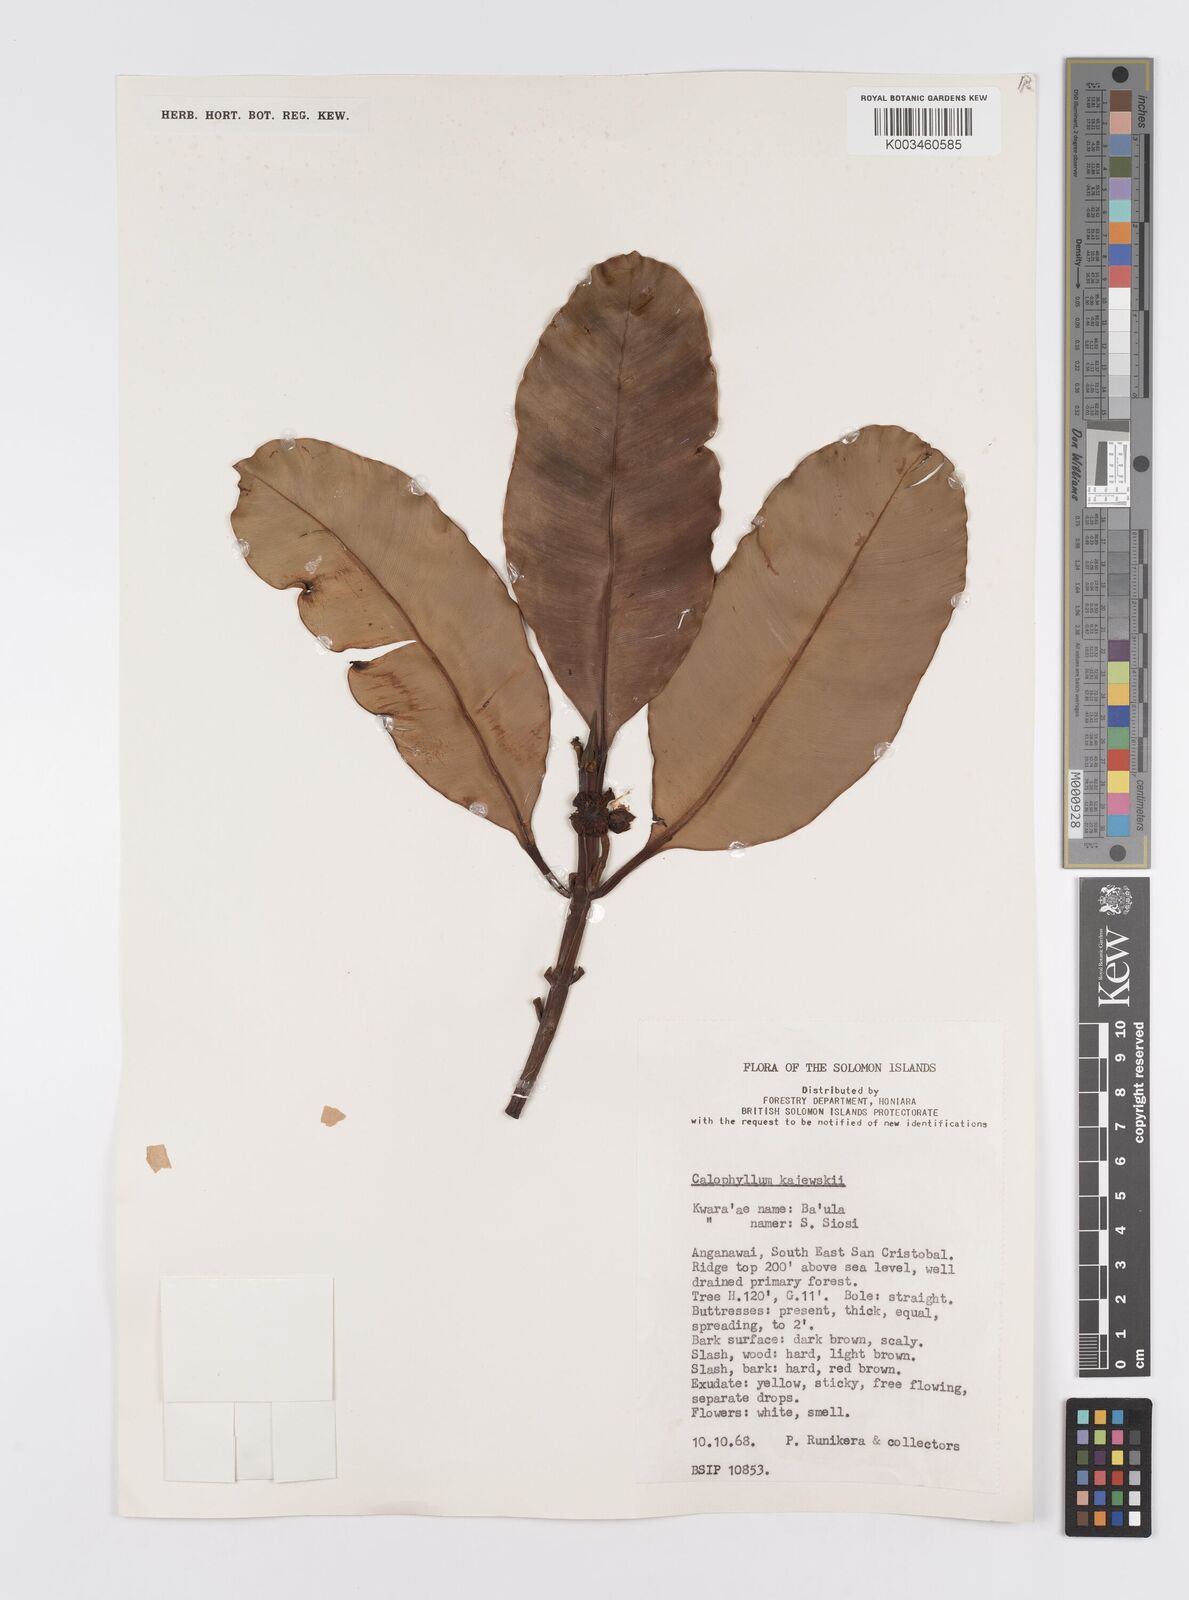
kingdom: Plantae
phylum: Tracheophyta
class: Magnoliopsida
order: Malpighiales
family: Calophyllaceae
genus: Calophyllum
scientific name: Calophyllum peekelii
